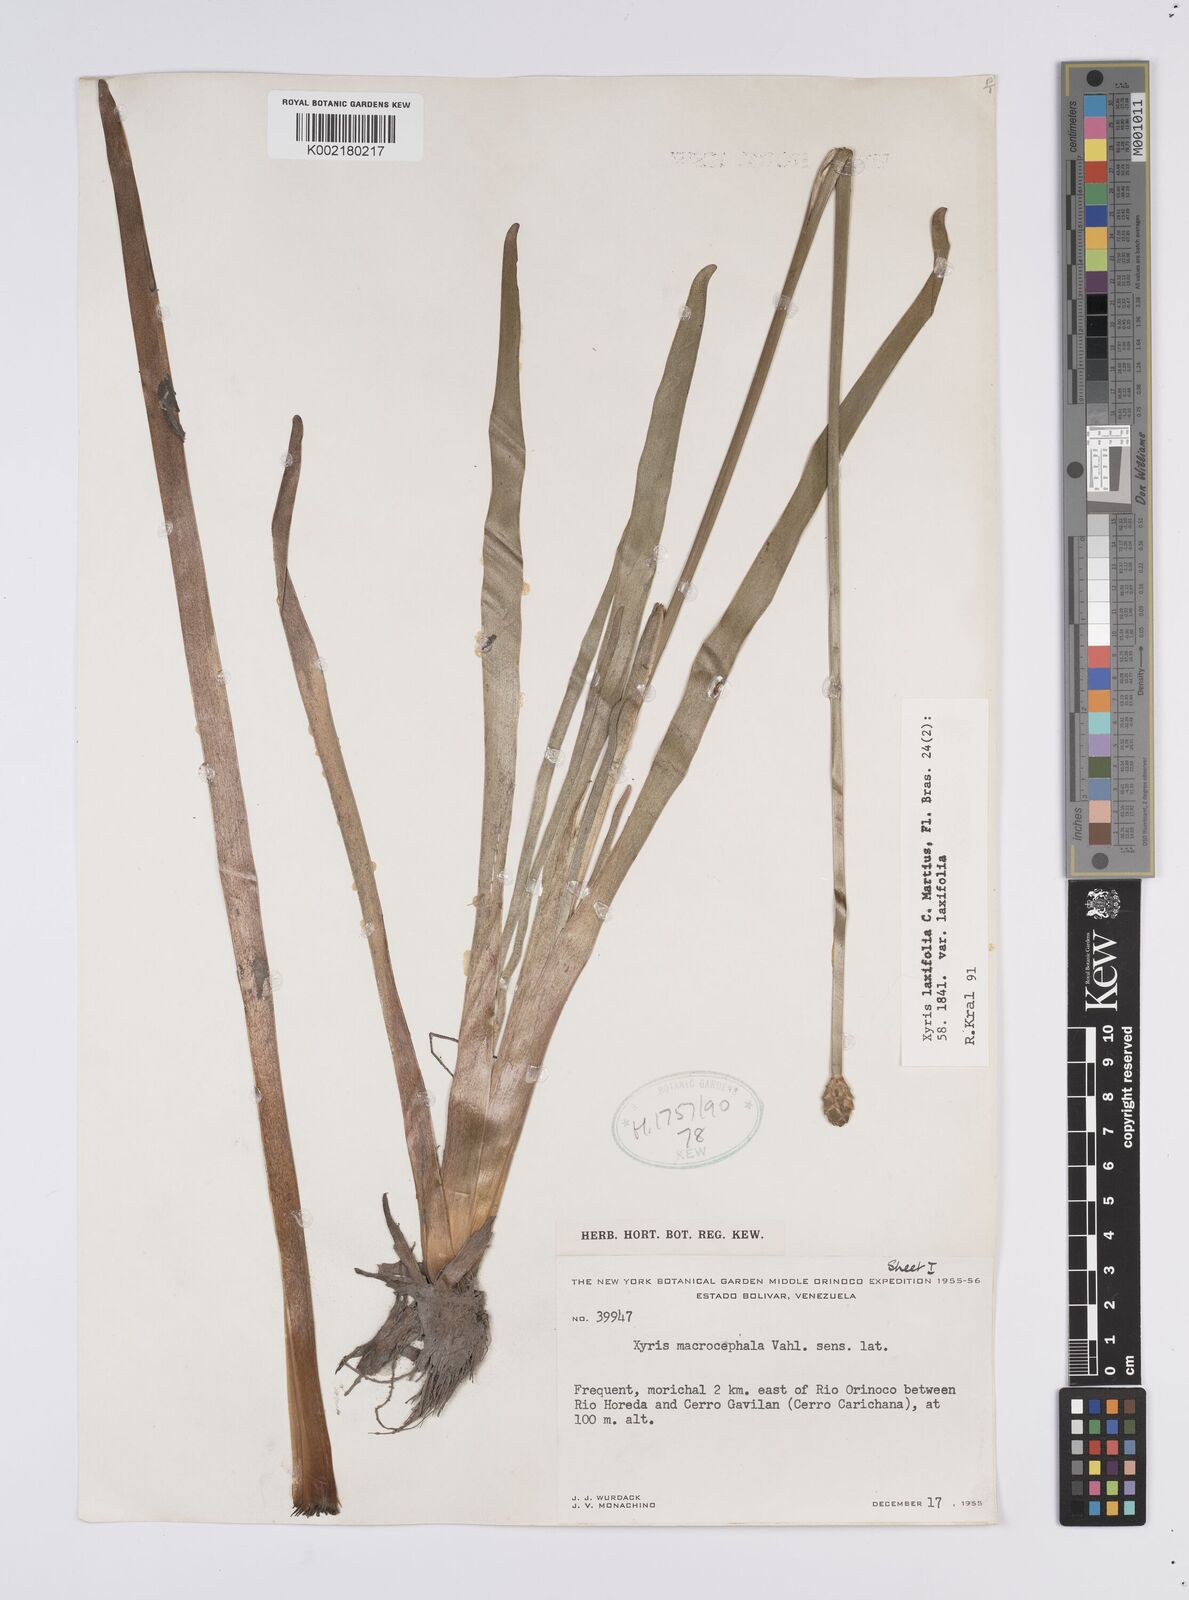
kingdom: Plantae
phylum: Tracheophyta
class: Liliopsida
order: Poales
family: Xyridaceae
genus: Xyris
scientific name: Xyris laxiflora
